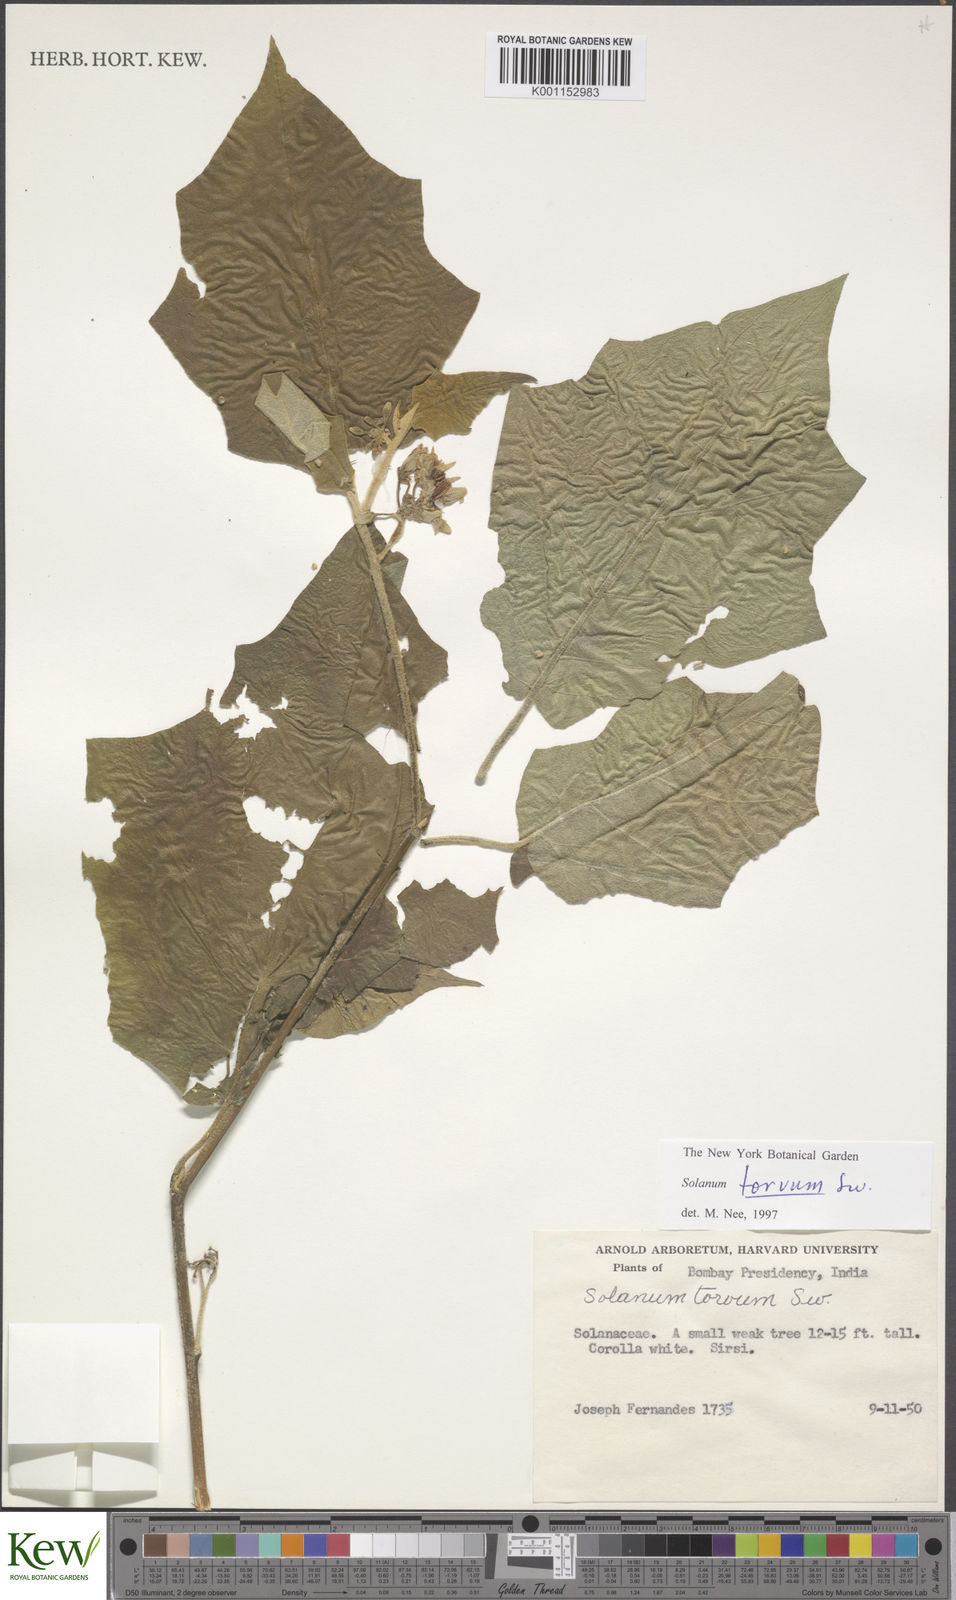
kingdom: Plantae
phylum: Tracheophyta
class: Magnoliopsida
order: Solanales
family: Solanaceae
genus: Solanum
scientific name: Solanum torvum
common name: Turkey berry
